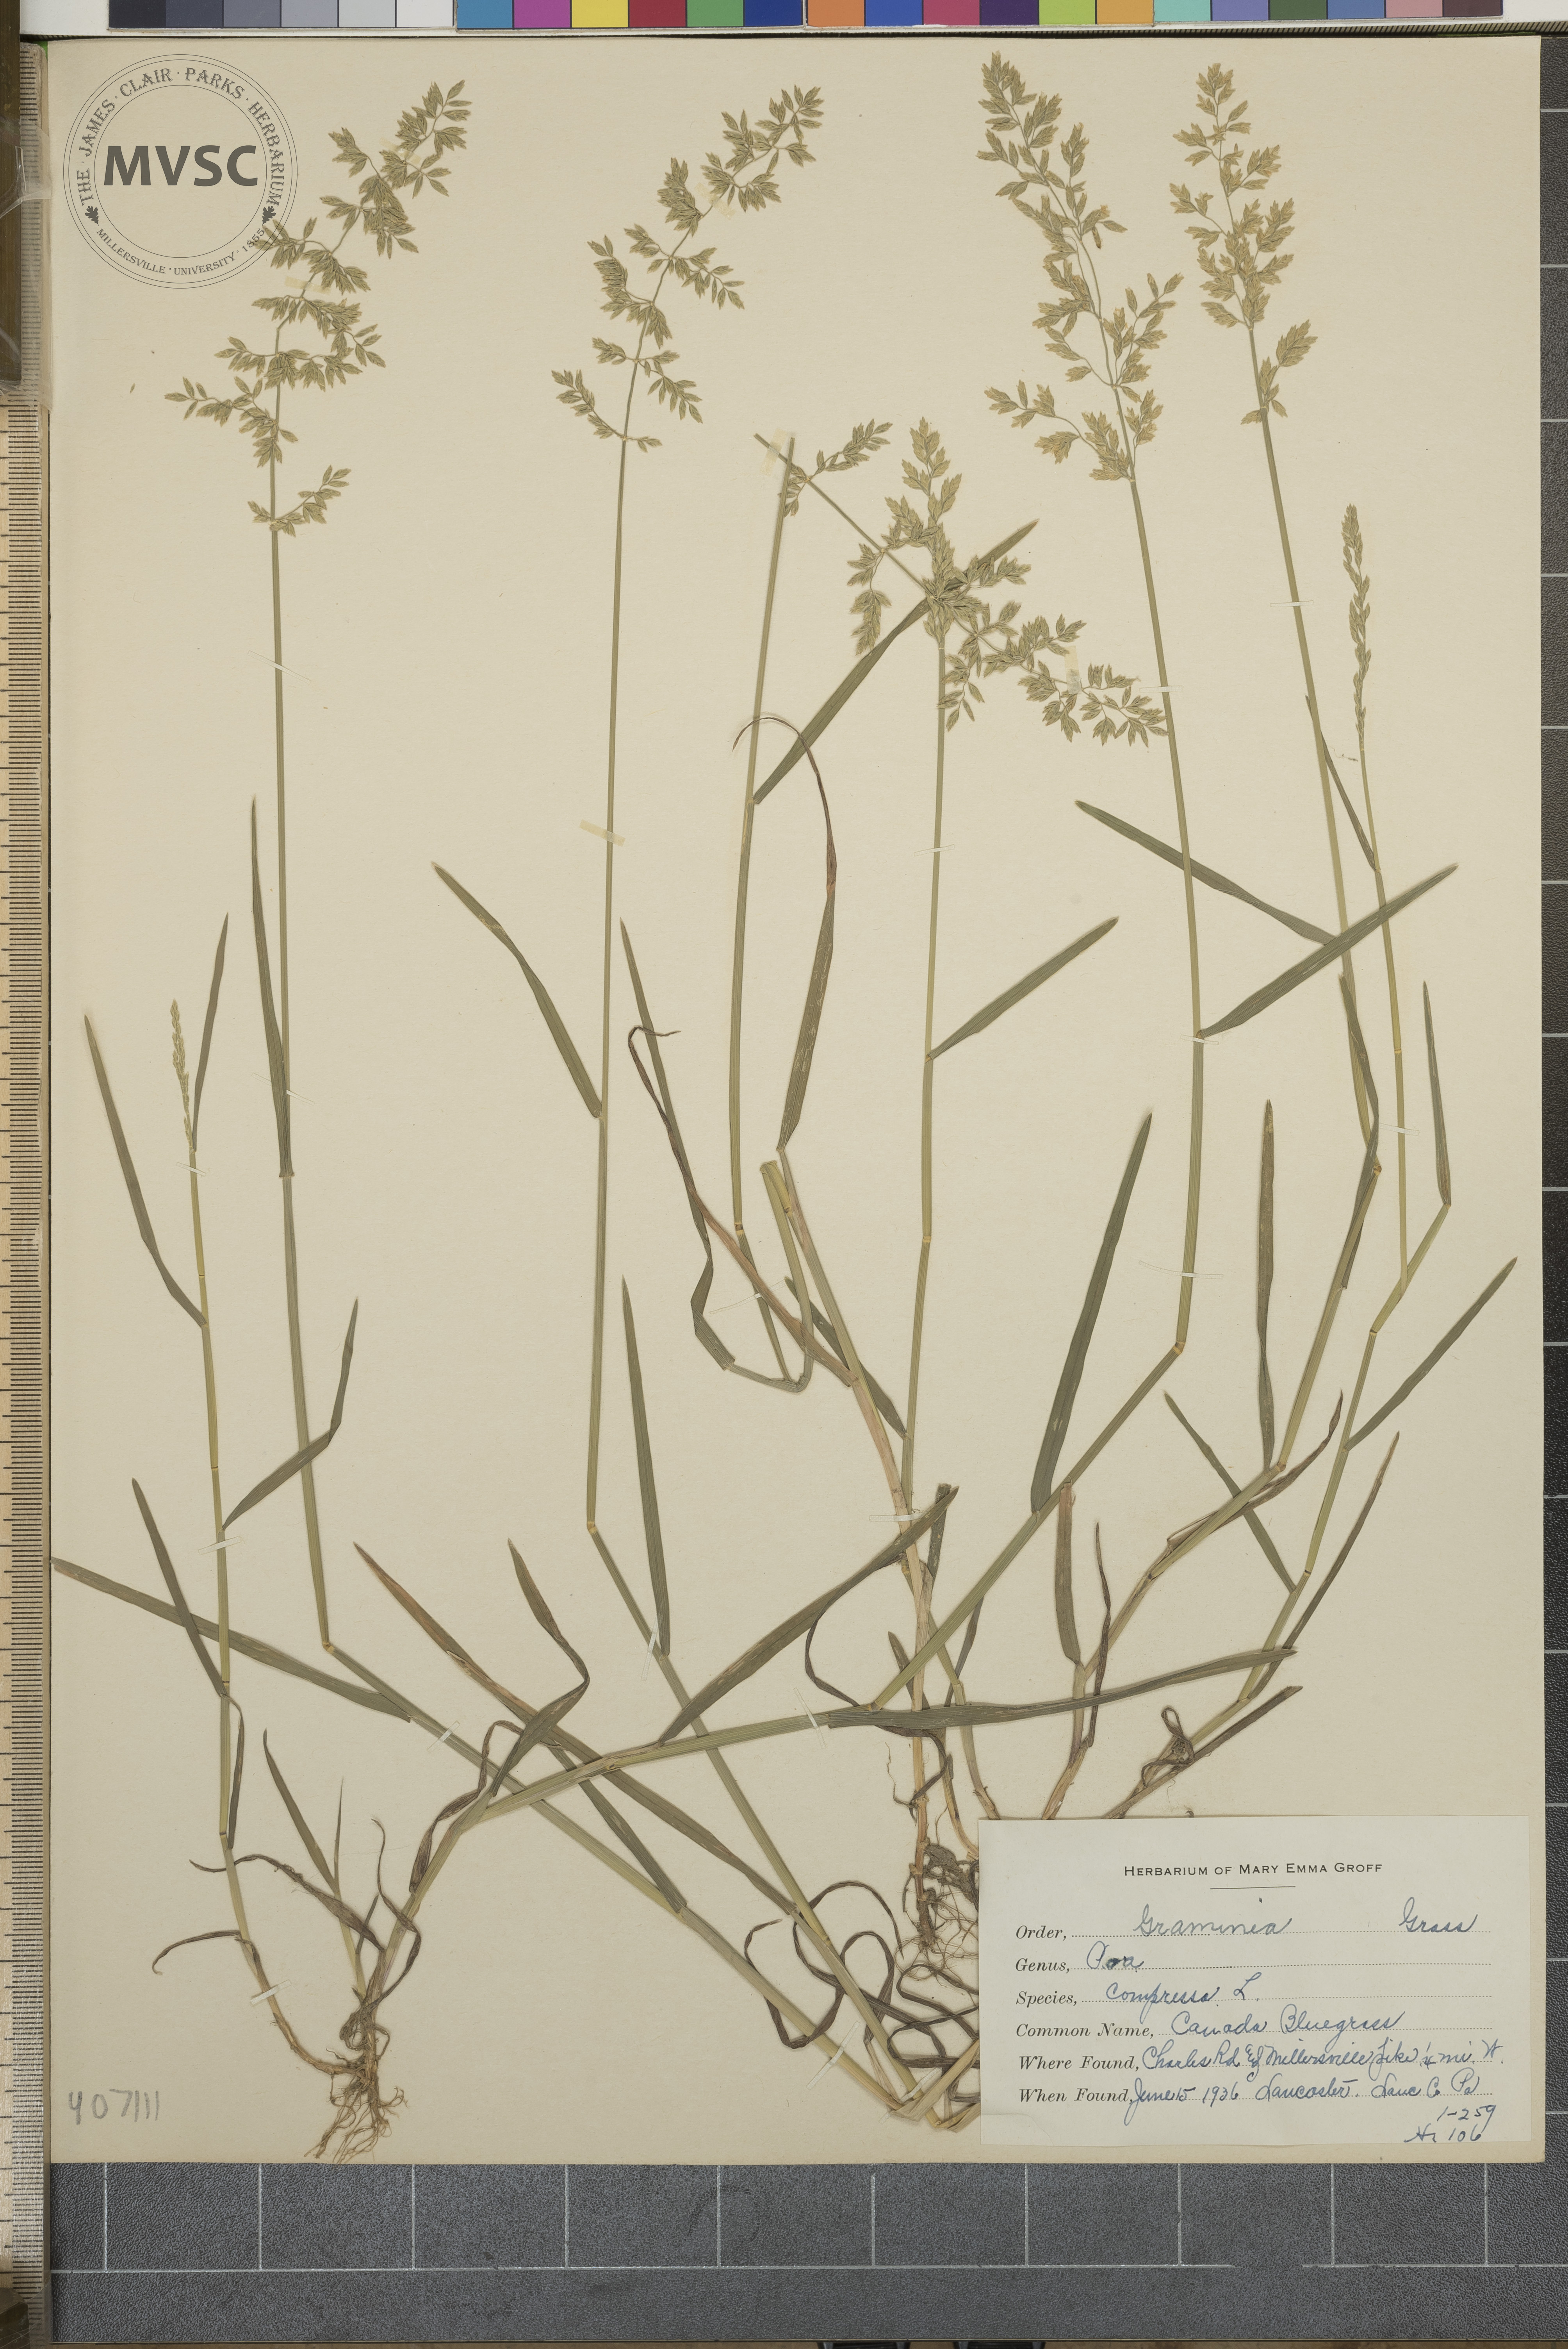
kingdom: Plantae
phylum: Tracheophyta
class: Liliopsida
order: Poales
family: Poaceae
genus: Poa
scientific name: Poa compressa
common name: Canada bluegrass
